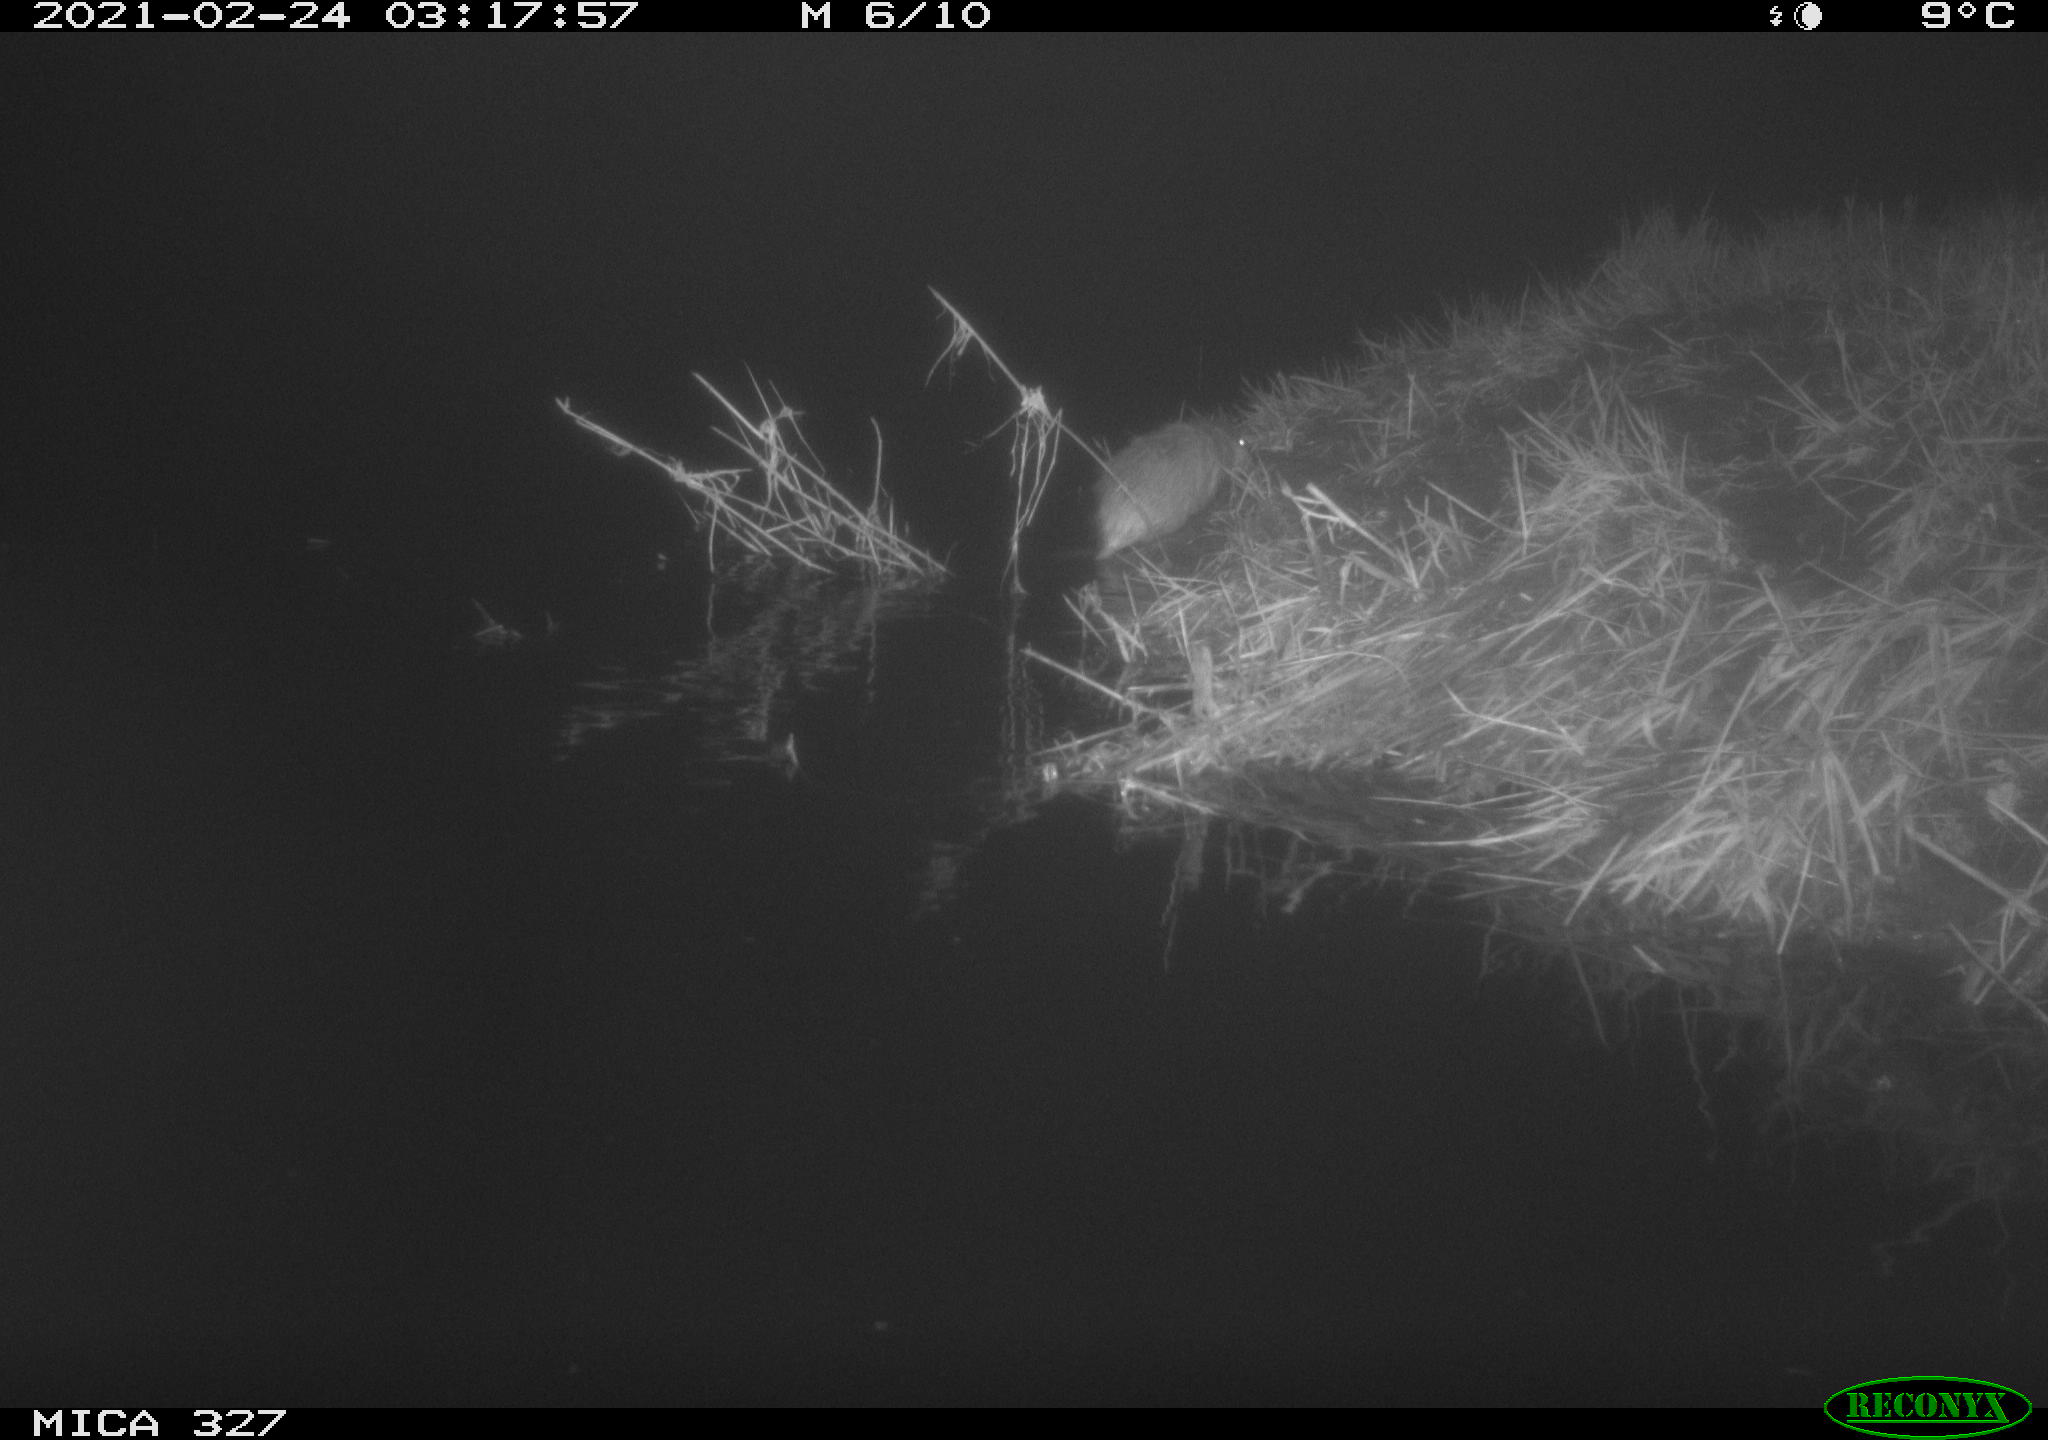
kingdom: Animalia
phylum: Chordata
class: Mammalia
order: Rodentia
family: Cricetidae
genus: Ondatra
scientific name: Ondatra zibethicus
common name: Muskrat
